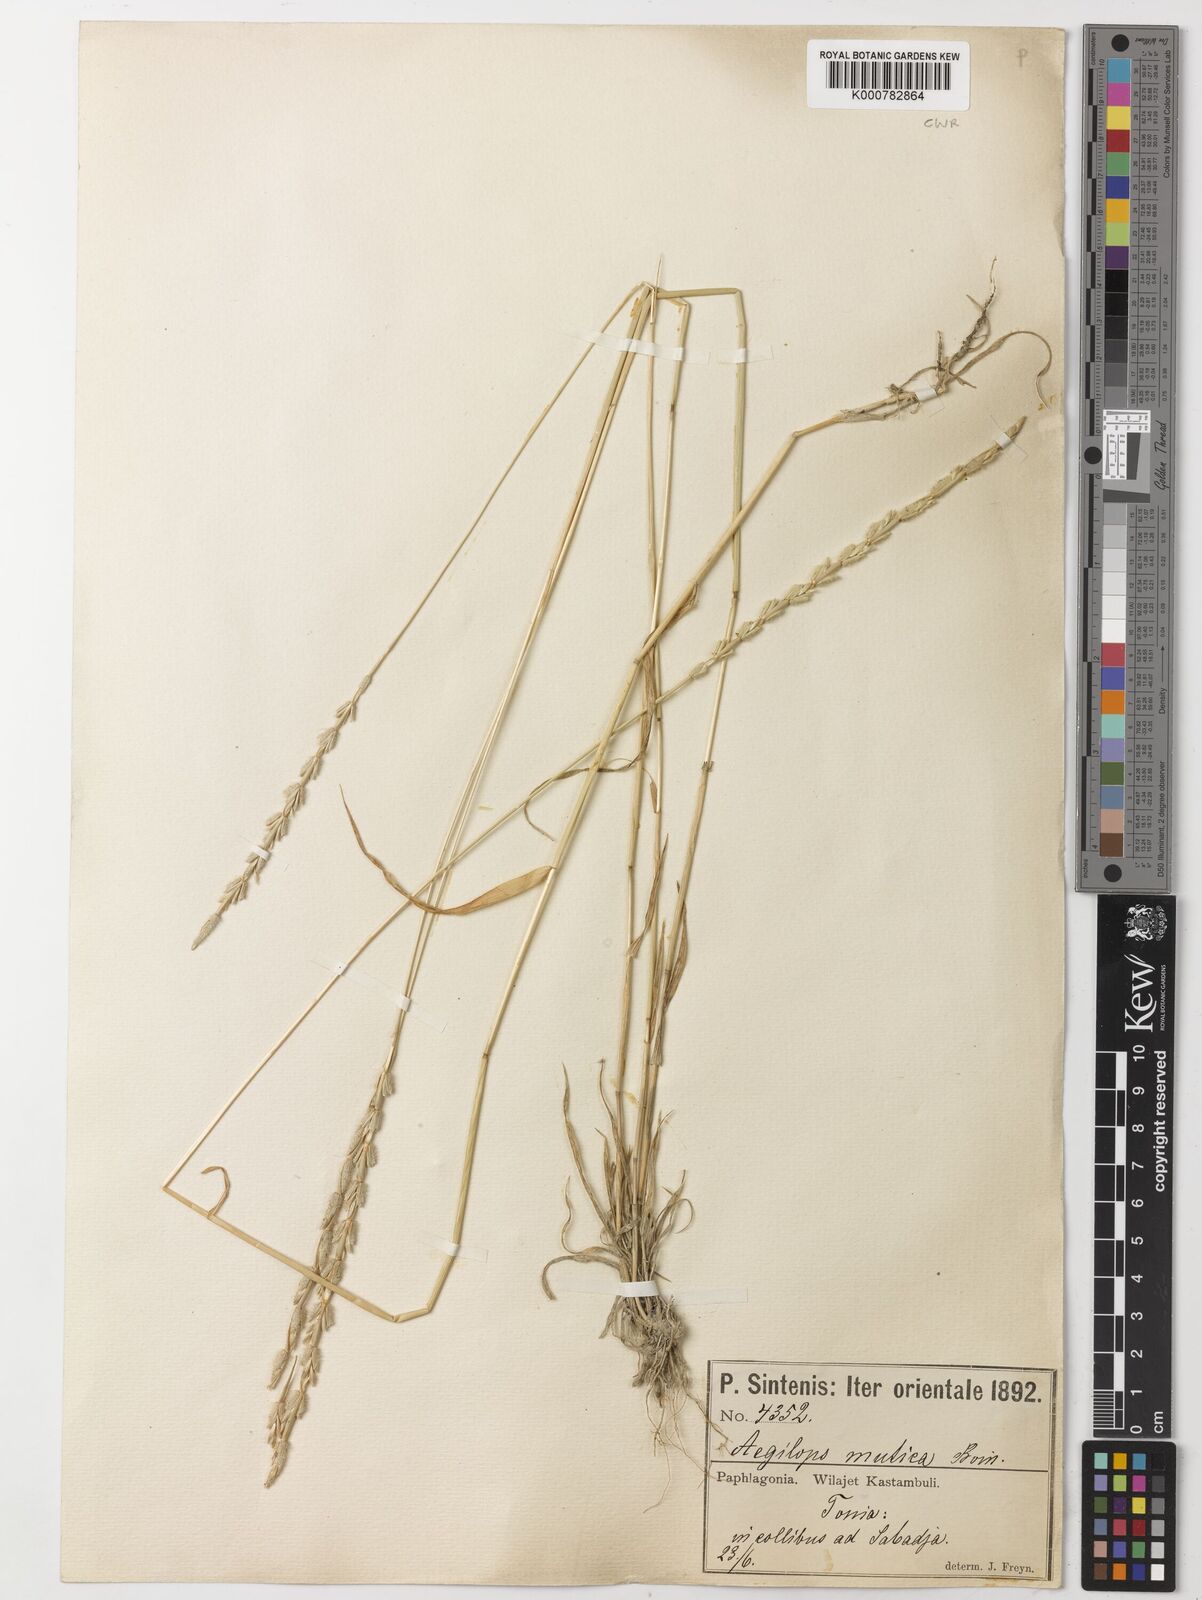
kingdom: Plantae
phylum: Tracheophyta
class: Liliopsida
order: Poales
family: Poaceae
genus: Aegilops
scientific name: Aegilops mutica
